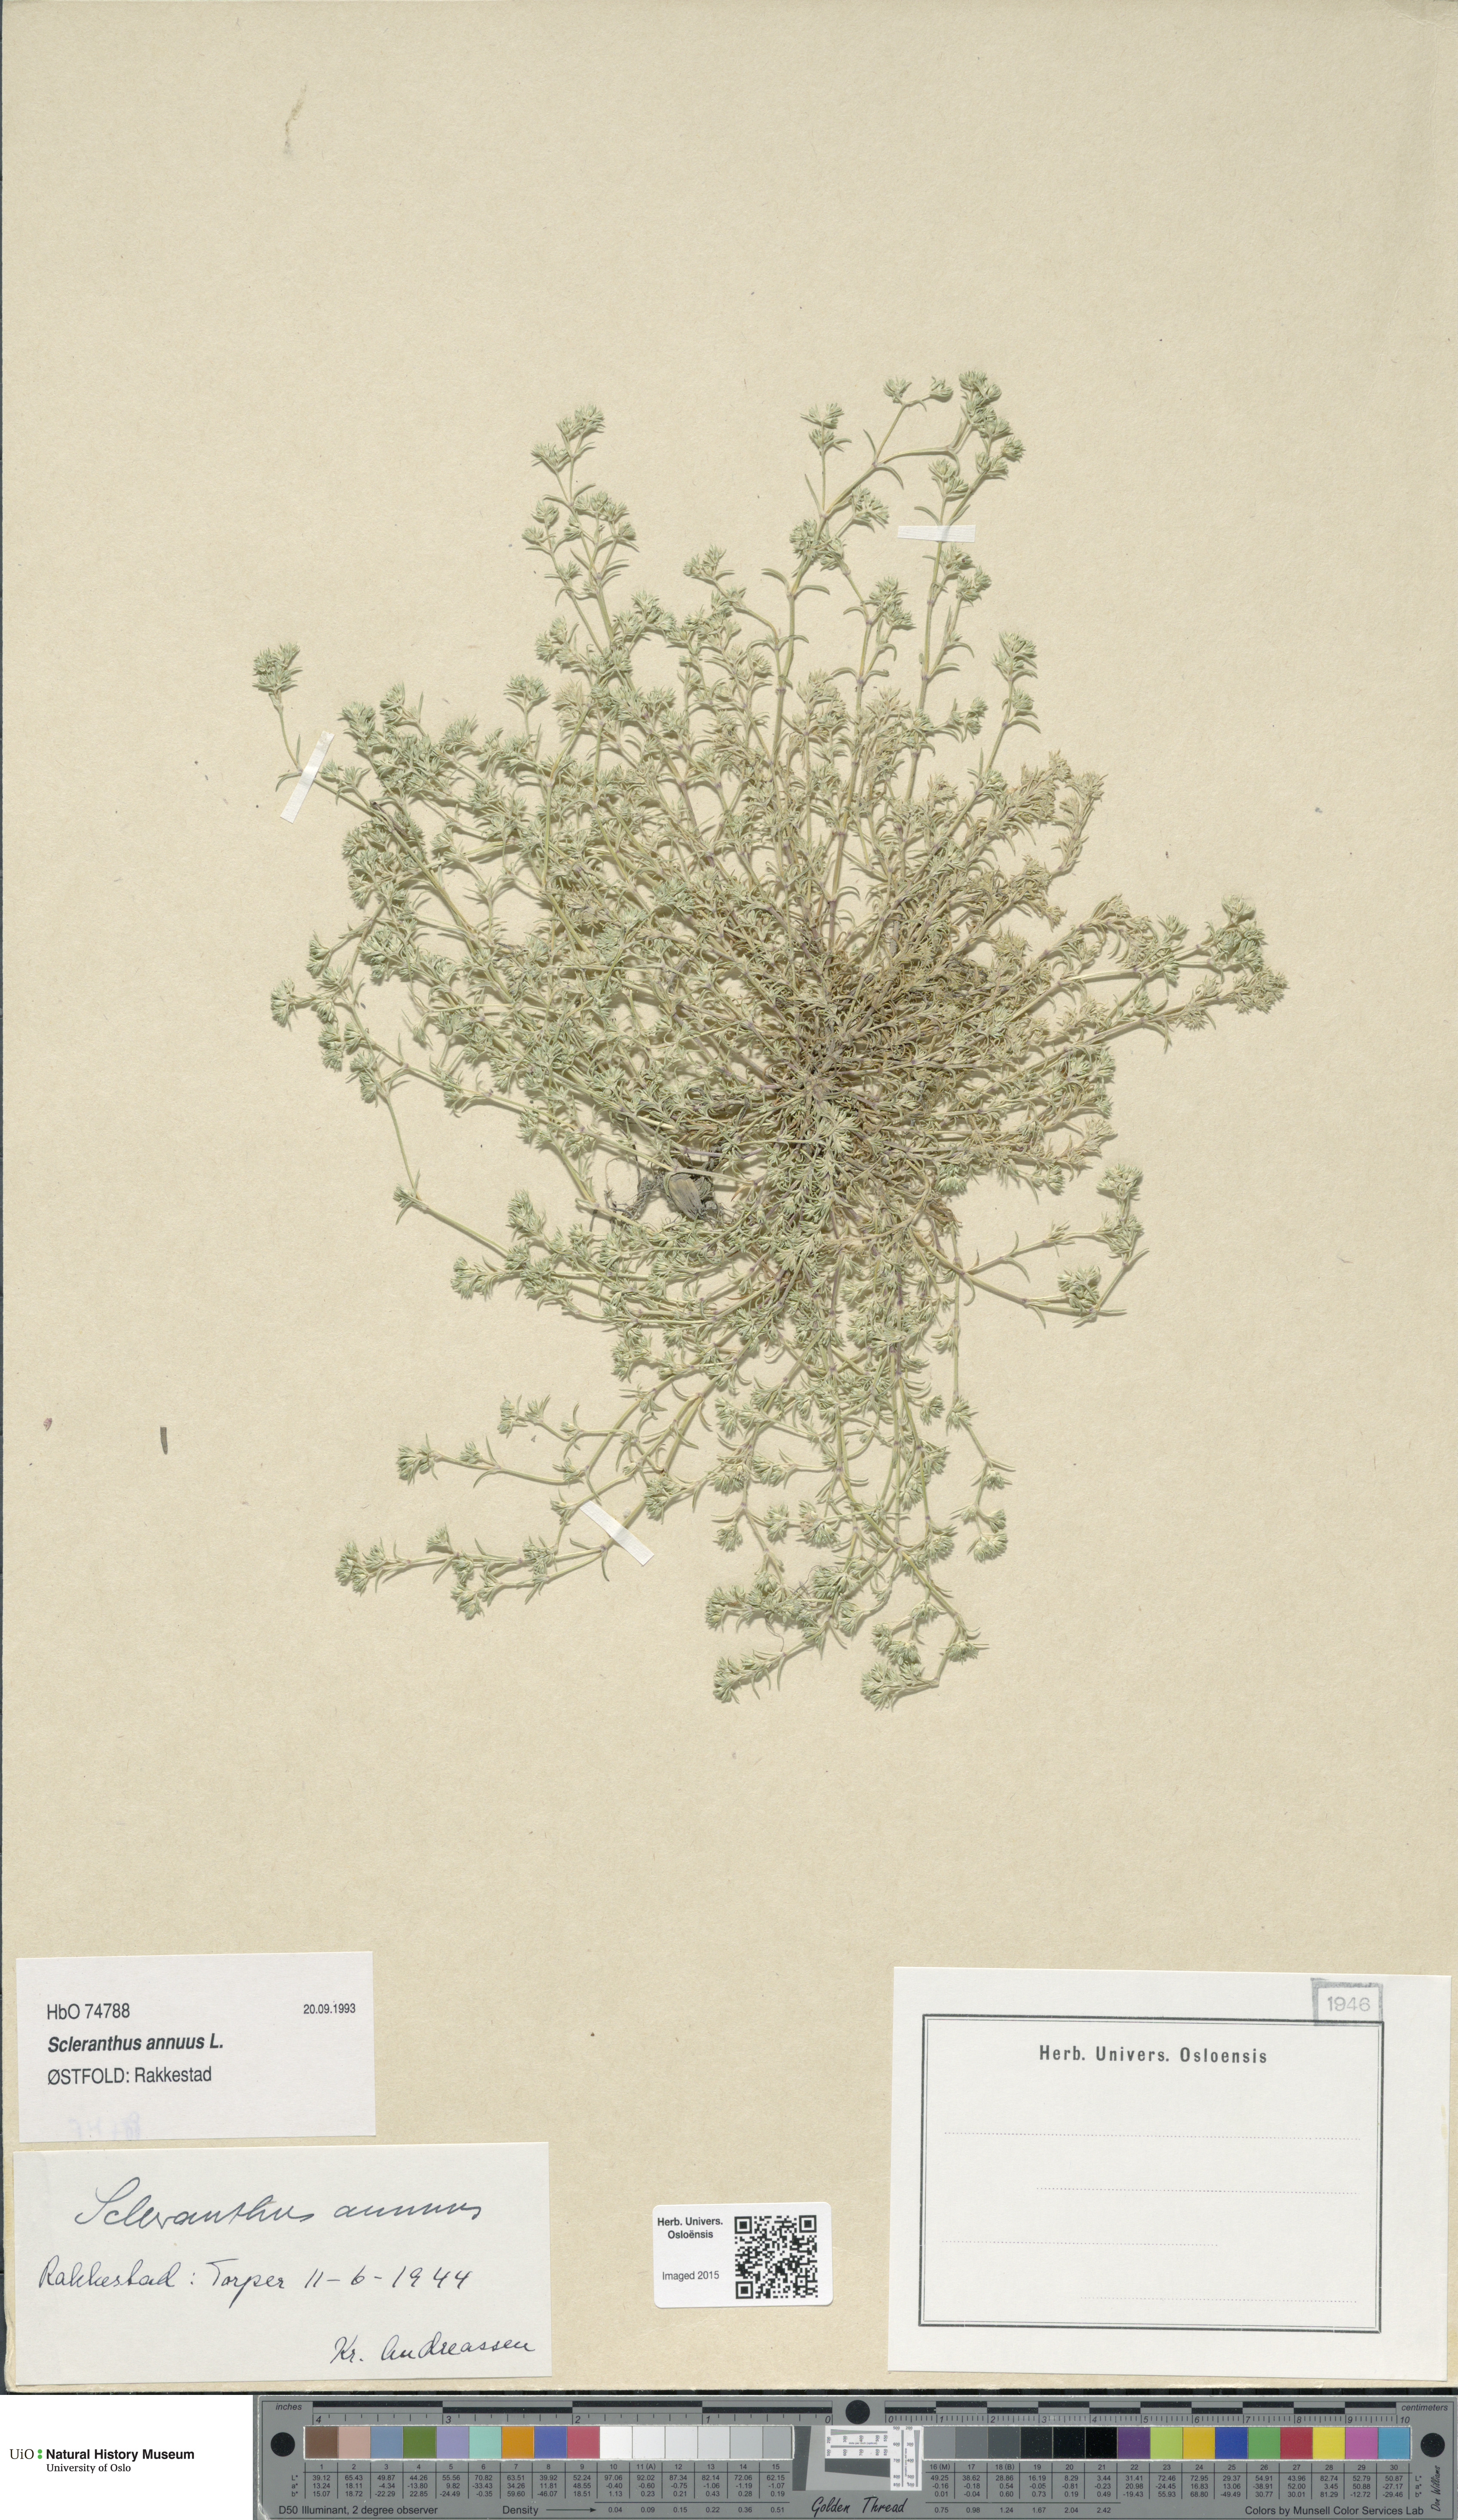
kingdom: Plantae
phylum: Tracheophyta
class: Magnoliopsida
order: Caryophyllales
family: Caryophyllaceae
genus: Scleranthus
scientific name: Scleranthus annuus
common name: Annual knawel
